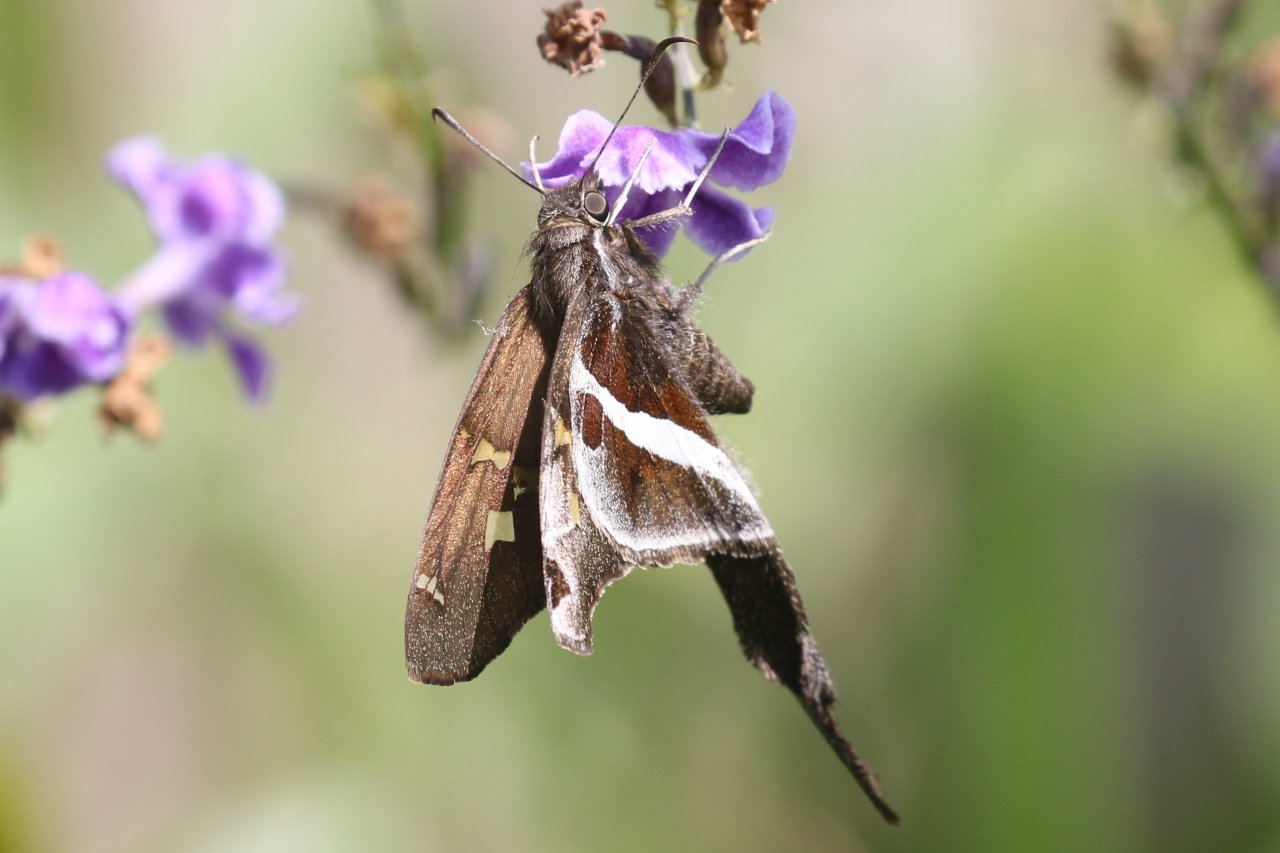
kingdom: Animalia
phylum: Arthropoda
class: Insecta
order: Lepidoptera
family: Hesperiidae
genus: Chioides
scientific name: Chioides catillus
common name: White-striped Longtail
